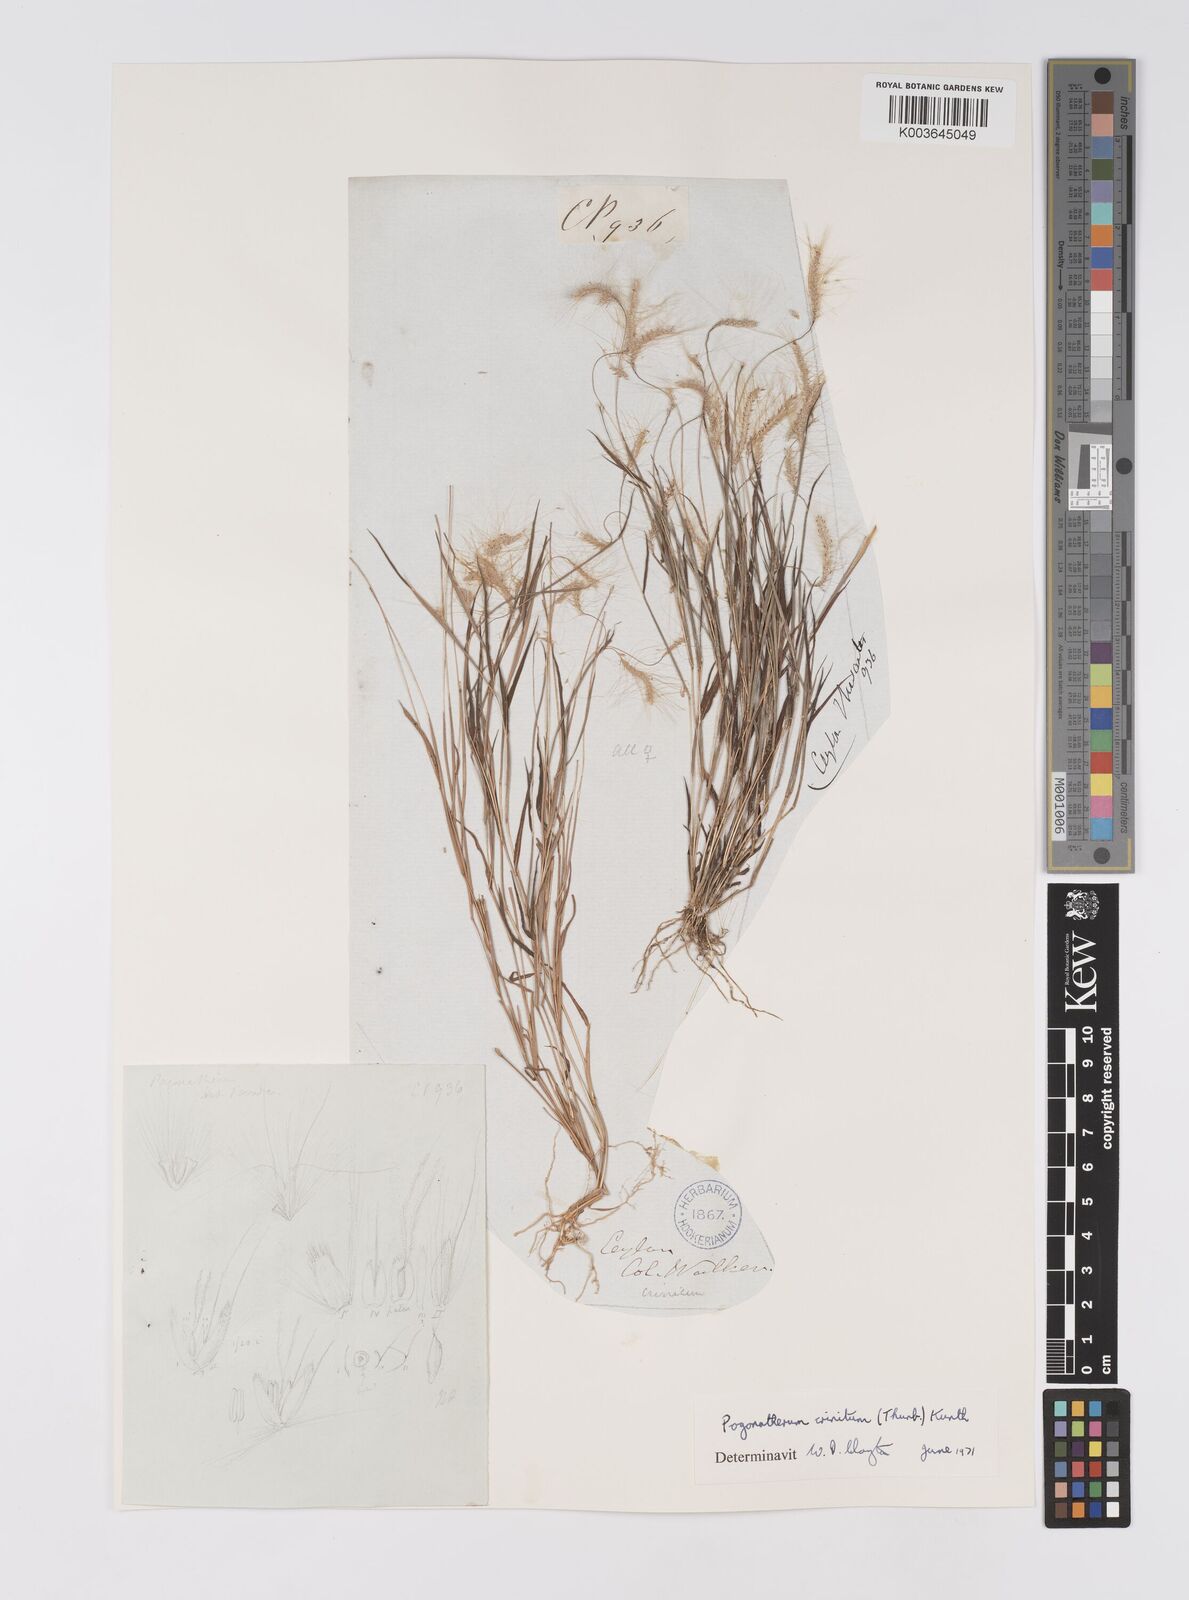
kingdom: Plantae
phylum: Tracheophyta
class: Liliopsida
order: Poales
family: Poaceae
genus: Pogonatherum
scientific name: Pogonatherum crinitum
